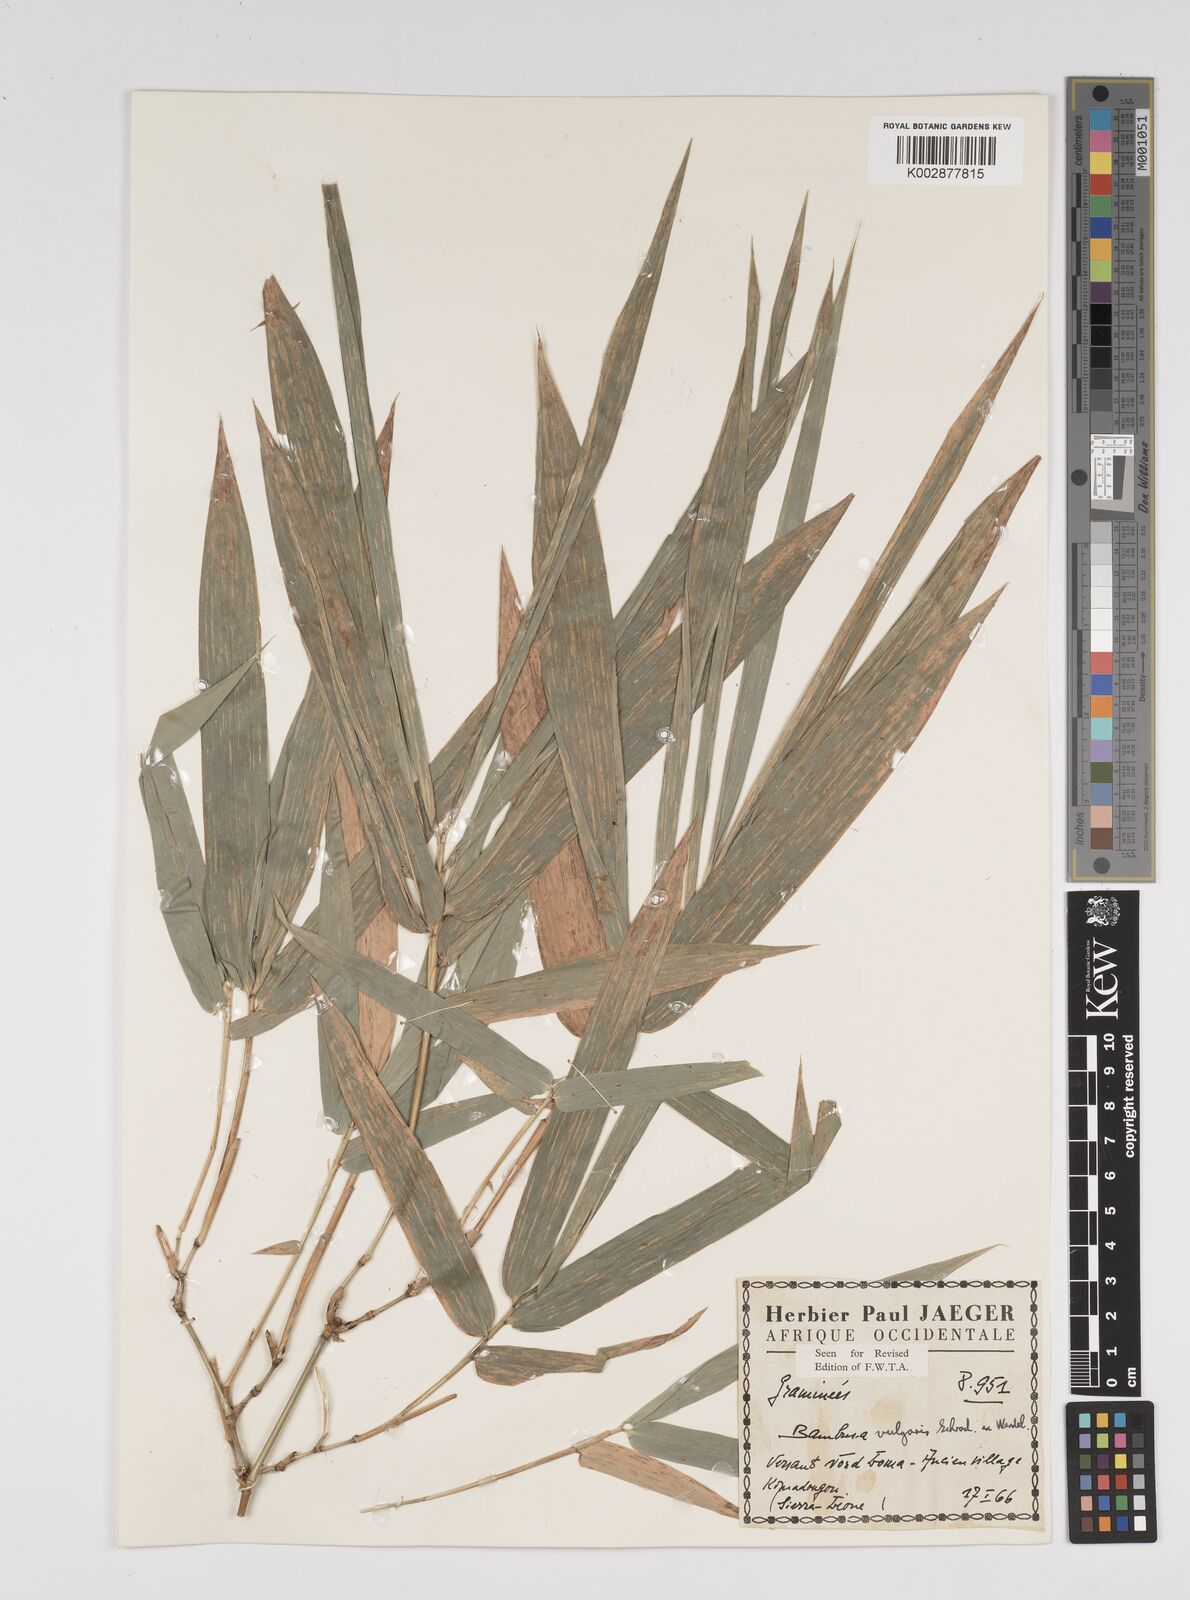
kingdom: Plantae
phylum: Tracheophyta
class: Liliopsida
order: Poales
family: Poaceae
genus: Bambusa
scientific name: Bambusa vulgaris
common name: Common bamboo
